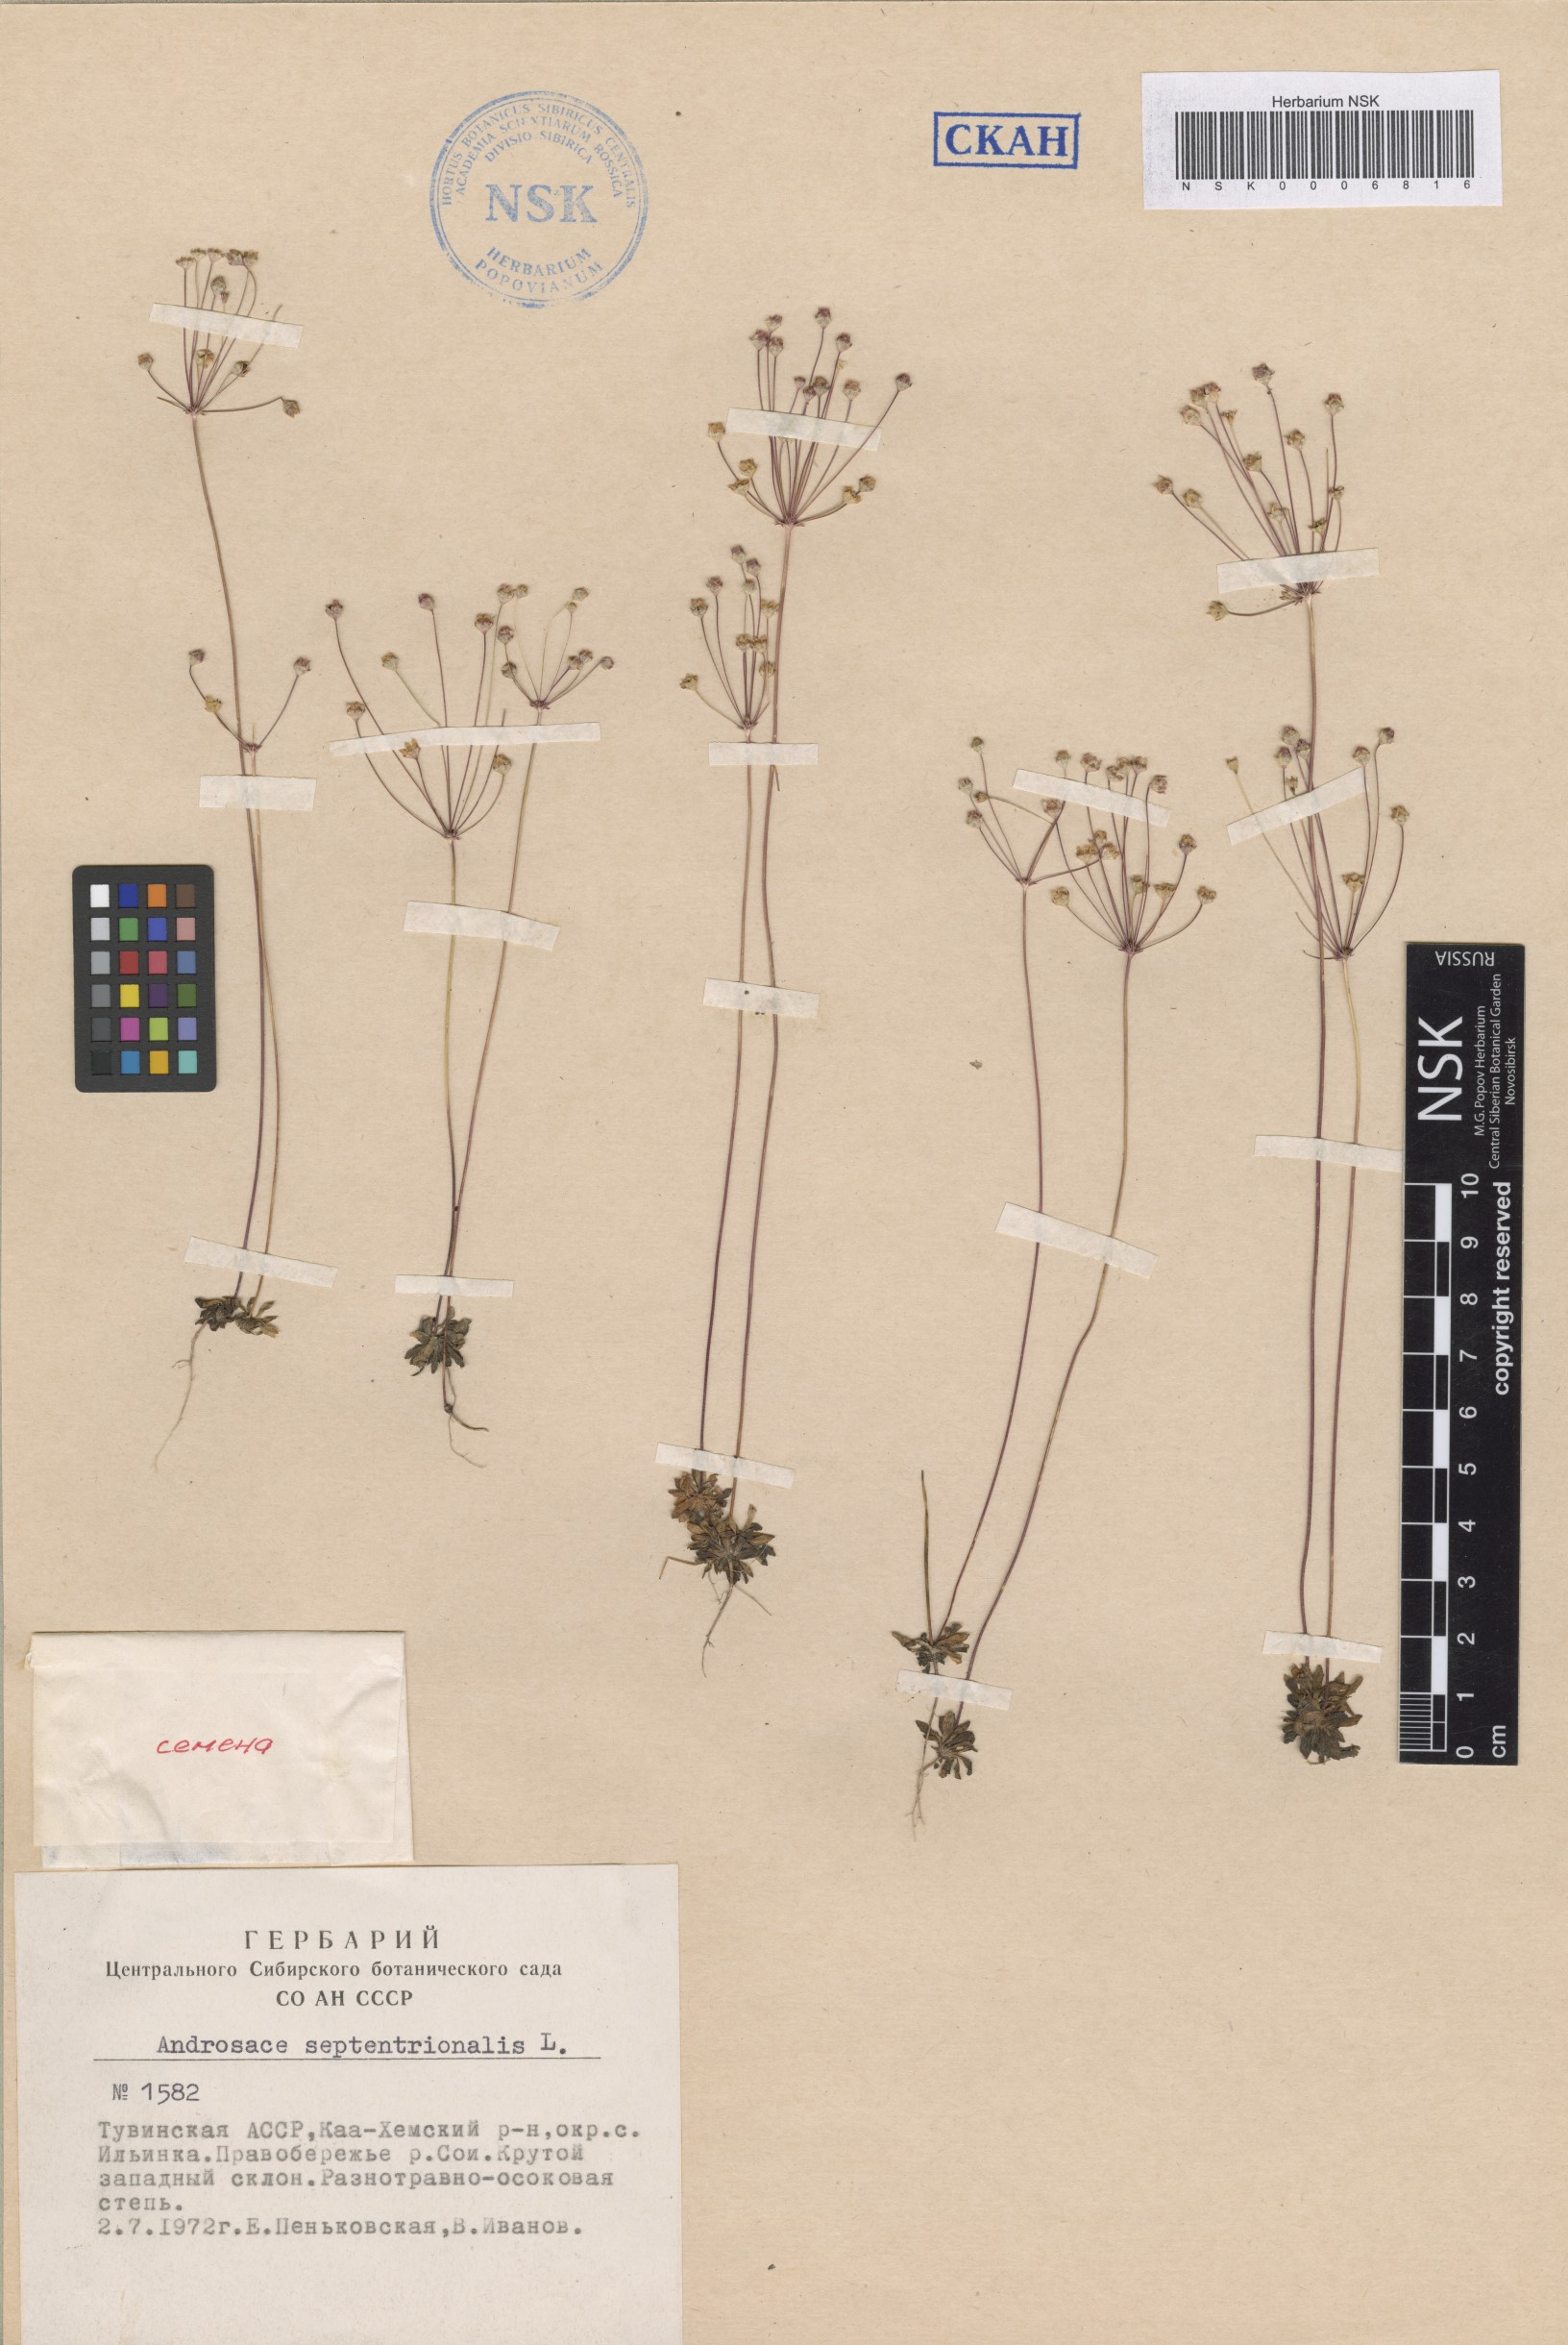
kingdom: Plantae
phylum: Tracheophyta
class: Magnoliopsida
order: Ericales
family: Primulaceae
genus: Androsace
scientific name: Androsace septentrionalis
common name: Hairy northern fairy-candelabra
